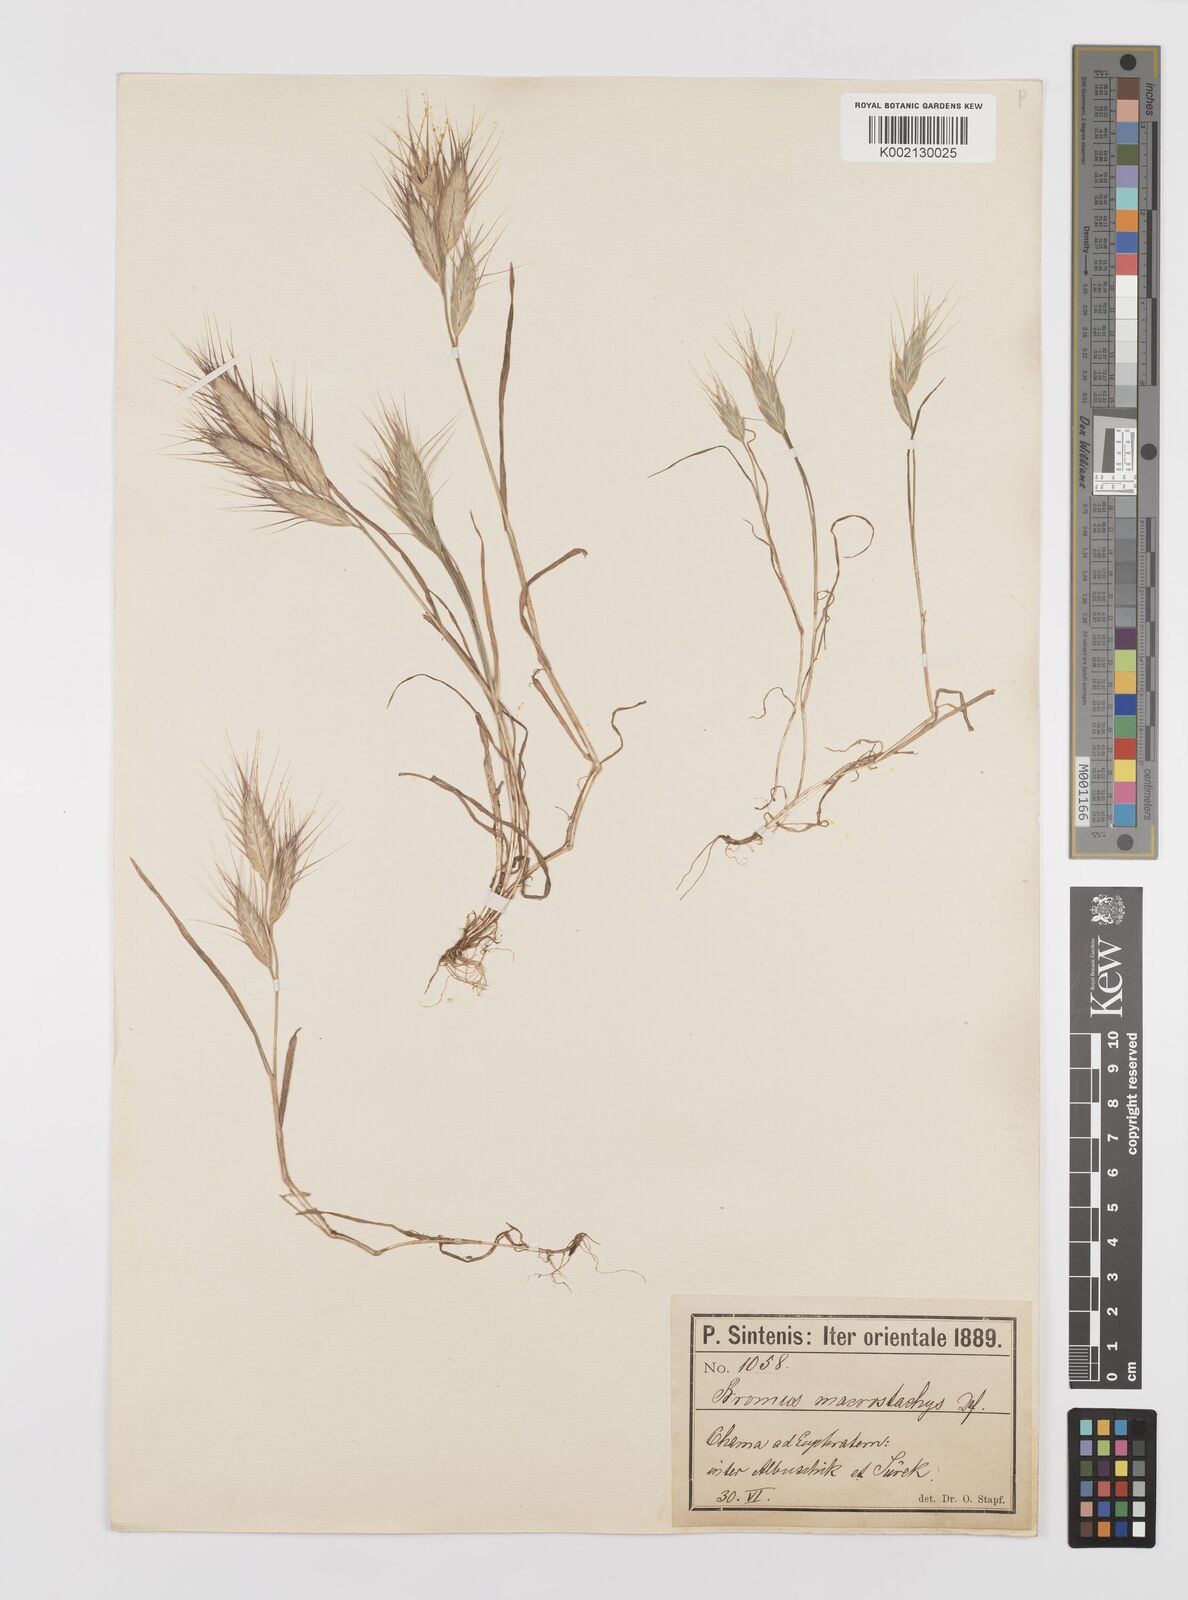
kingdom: Plantae
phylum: Tracheophyta
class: Liliopsida
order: Poales
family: Poaceae
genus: Bromus
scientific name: Bromus danthoniae
